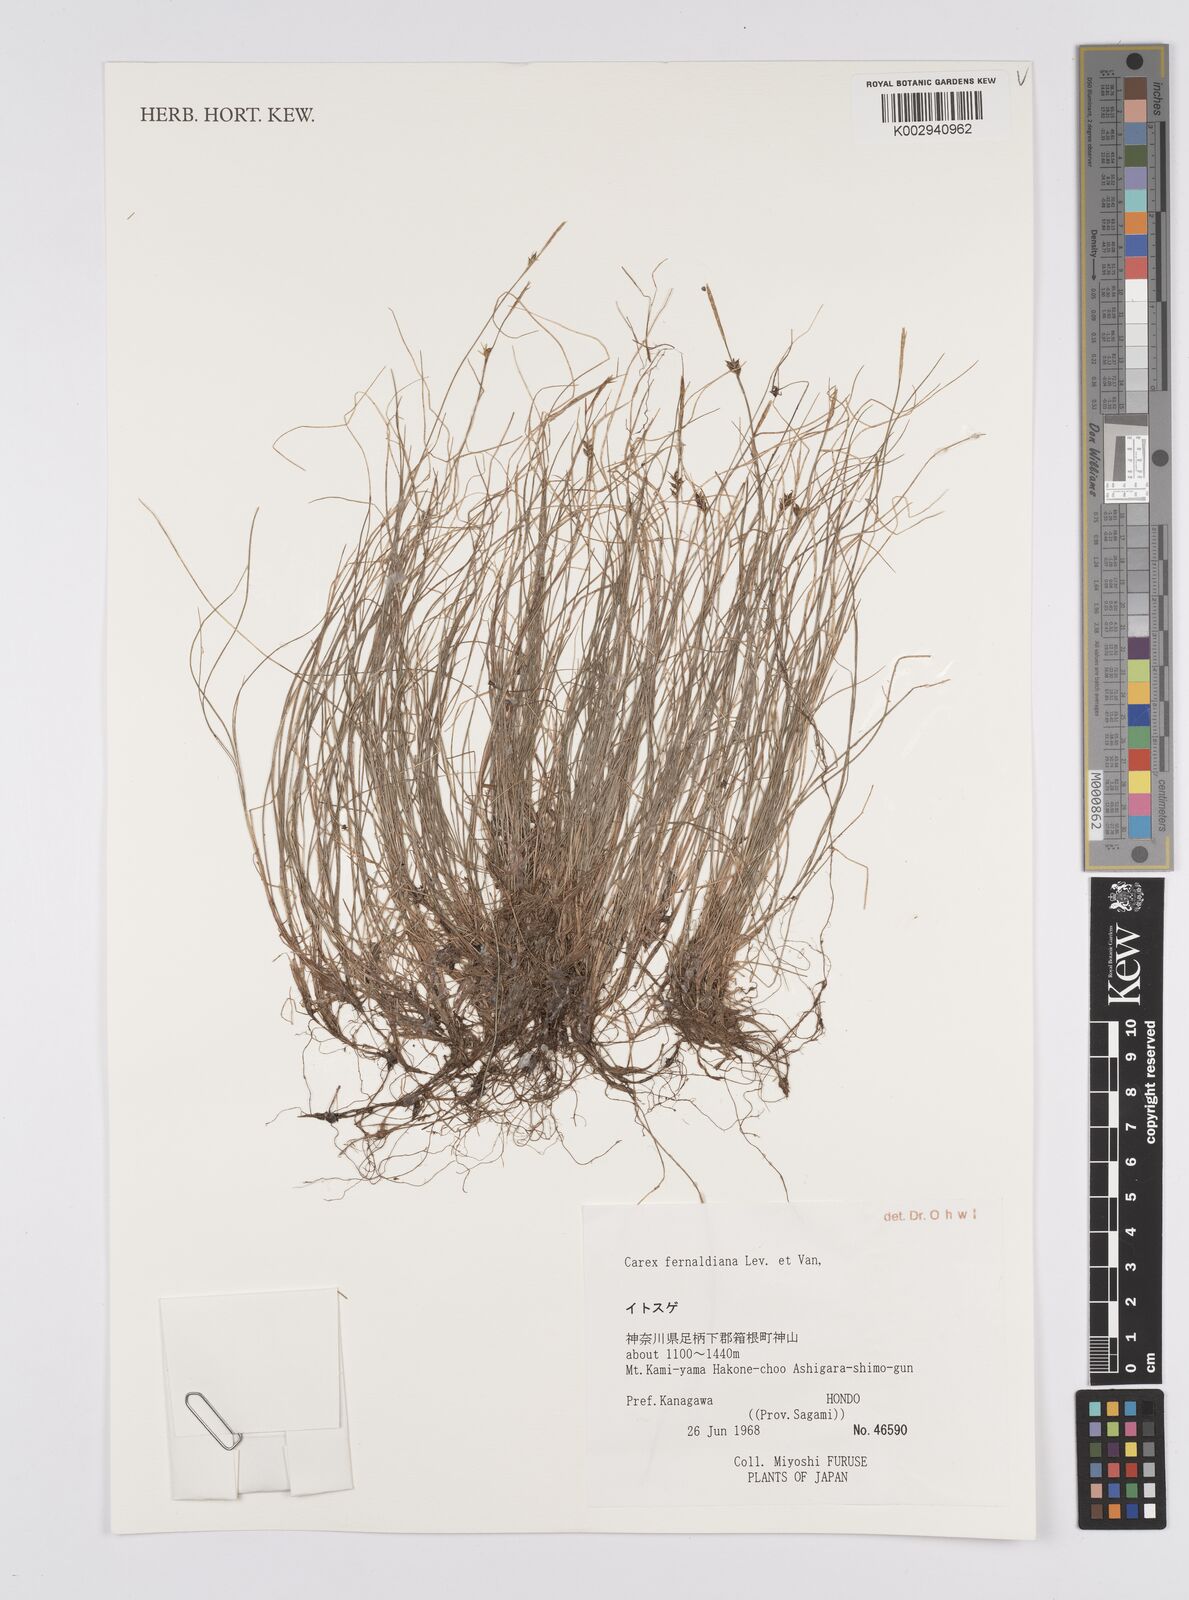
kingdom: Plantae
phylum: Tracheophyta
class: Liliopsida
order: Poales
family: Cyperaceae
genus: Carex
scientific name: Carex fibrillosa
